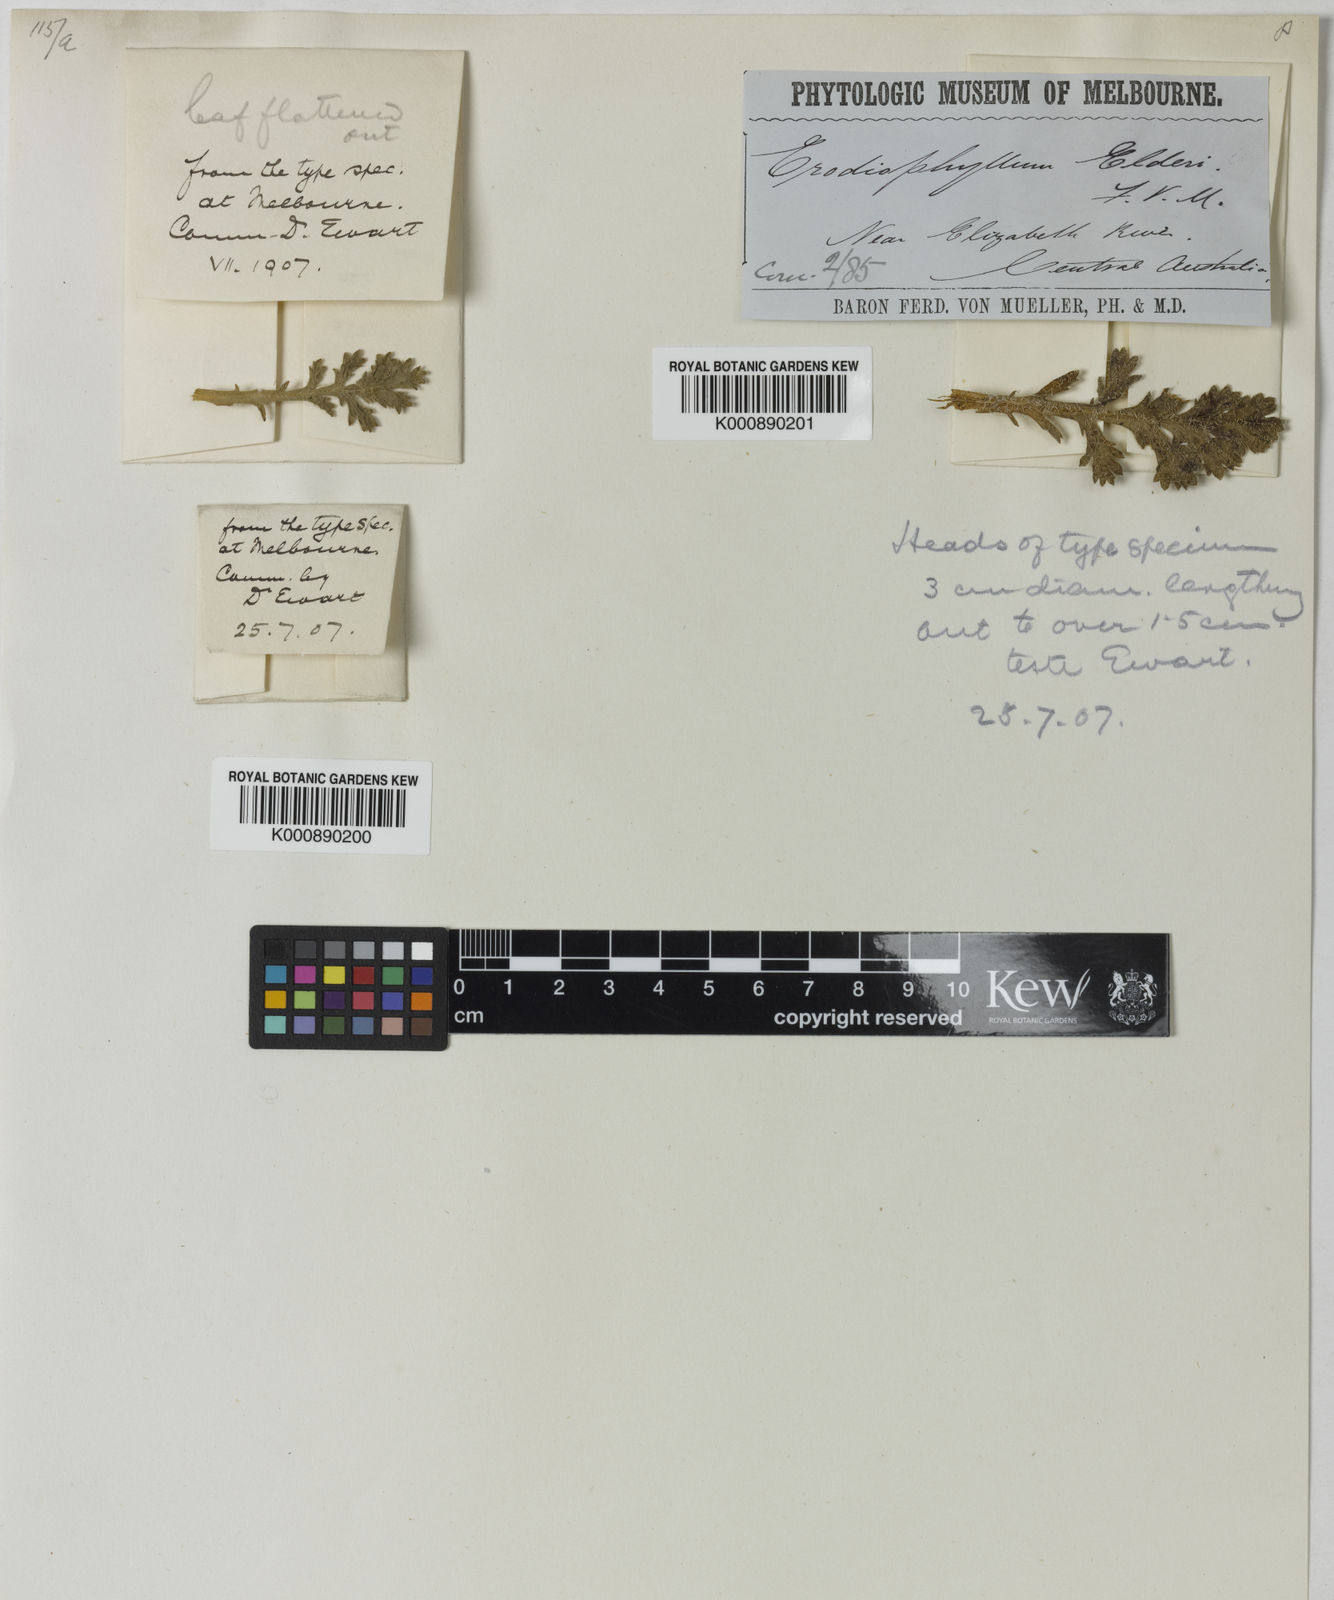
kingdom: Plantae
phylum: Tracheophyta
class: Magnoliopsida
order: Asterales
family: Asteraceae
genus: Erodiophyllum
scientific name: Erodiophyllum
